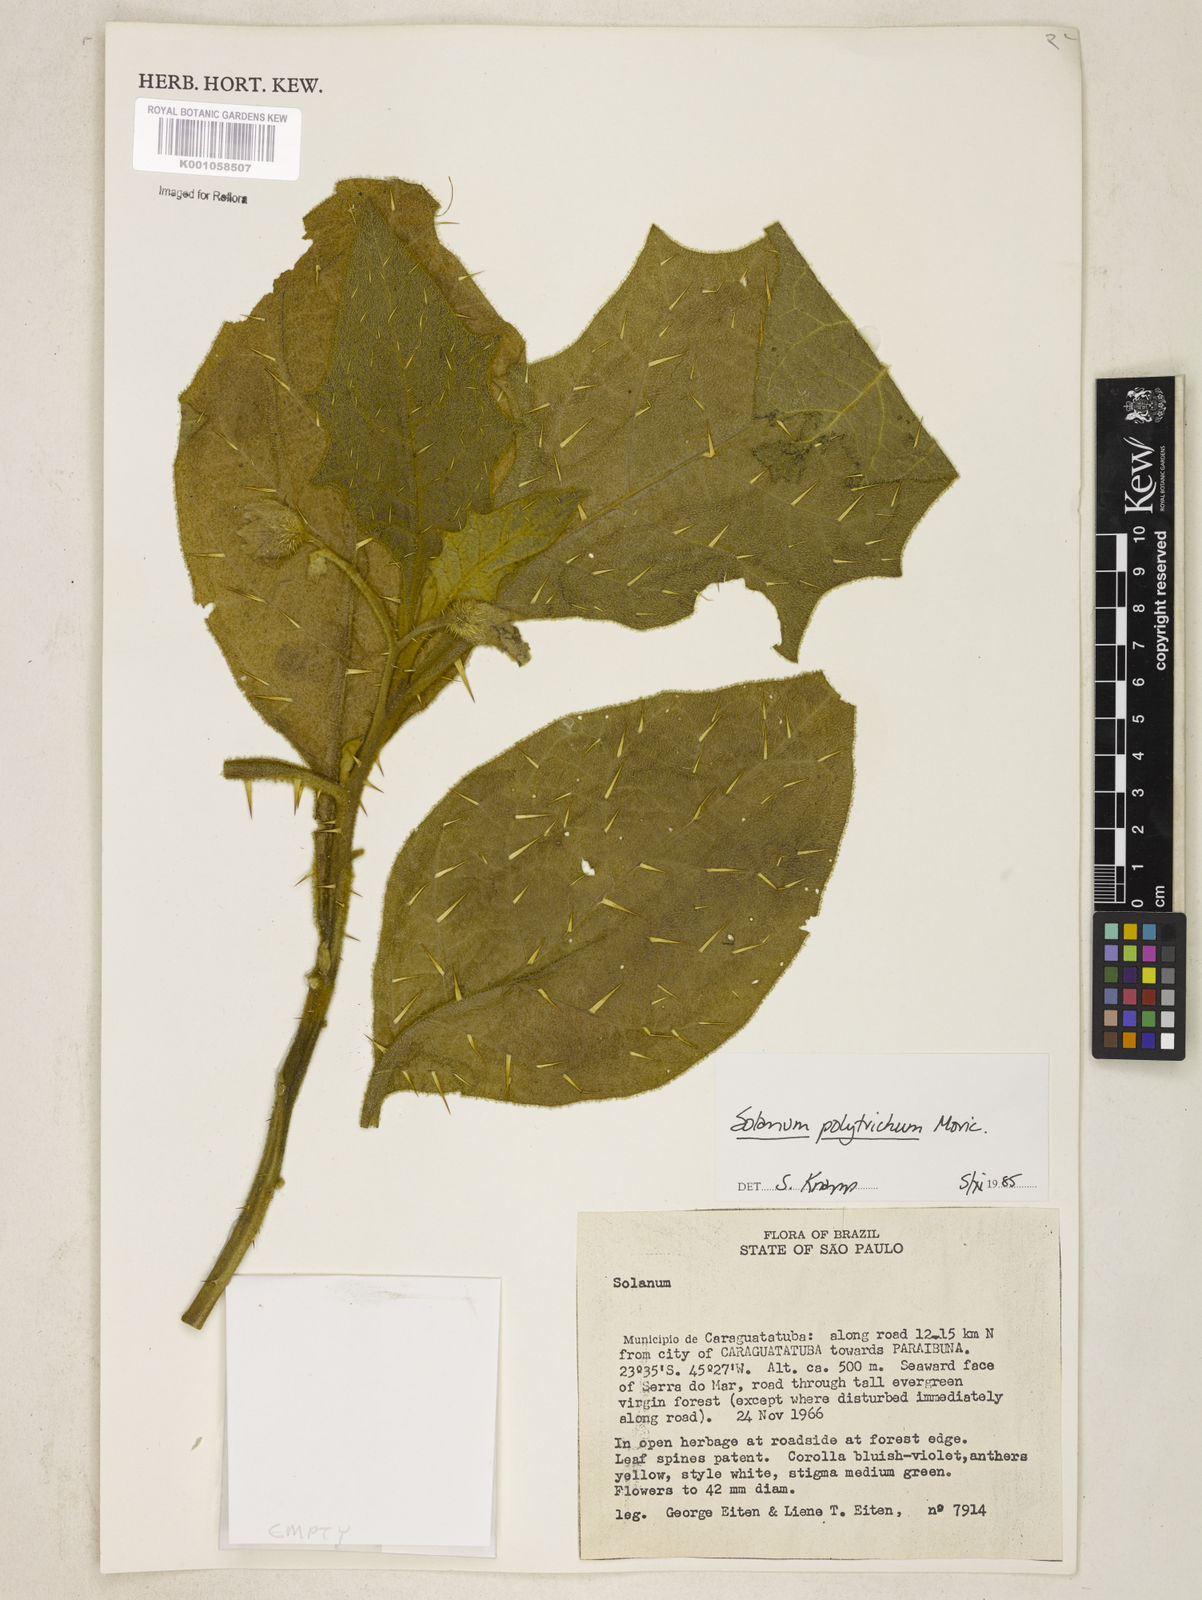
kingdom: Plantae
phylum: Tracheophyta
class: Magnoliopsida
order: Solanales
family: Solanaceae
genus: Solanum
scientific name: Solanum polytrichum
